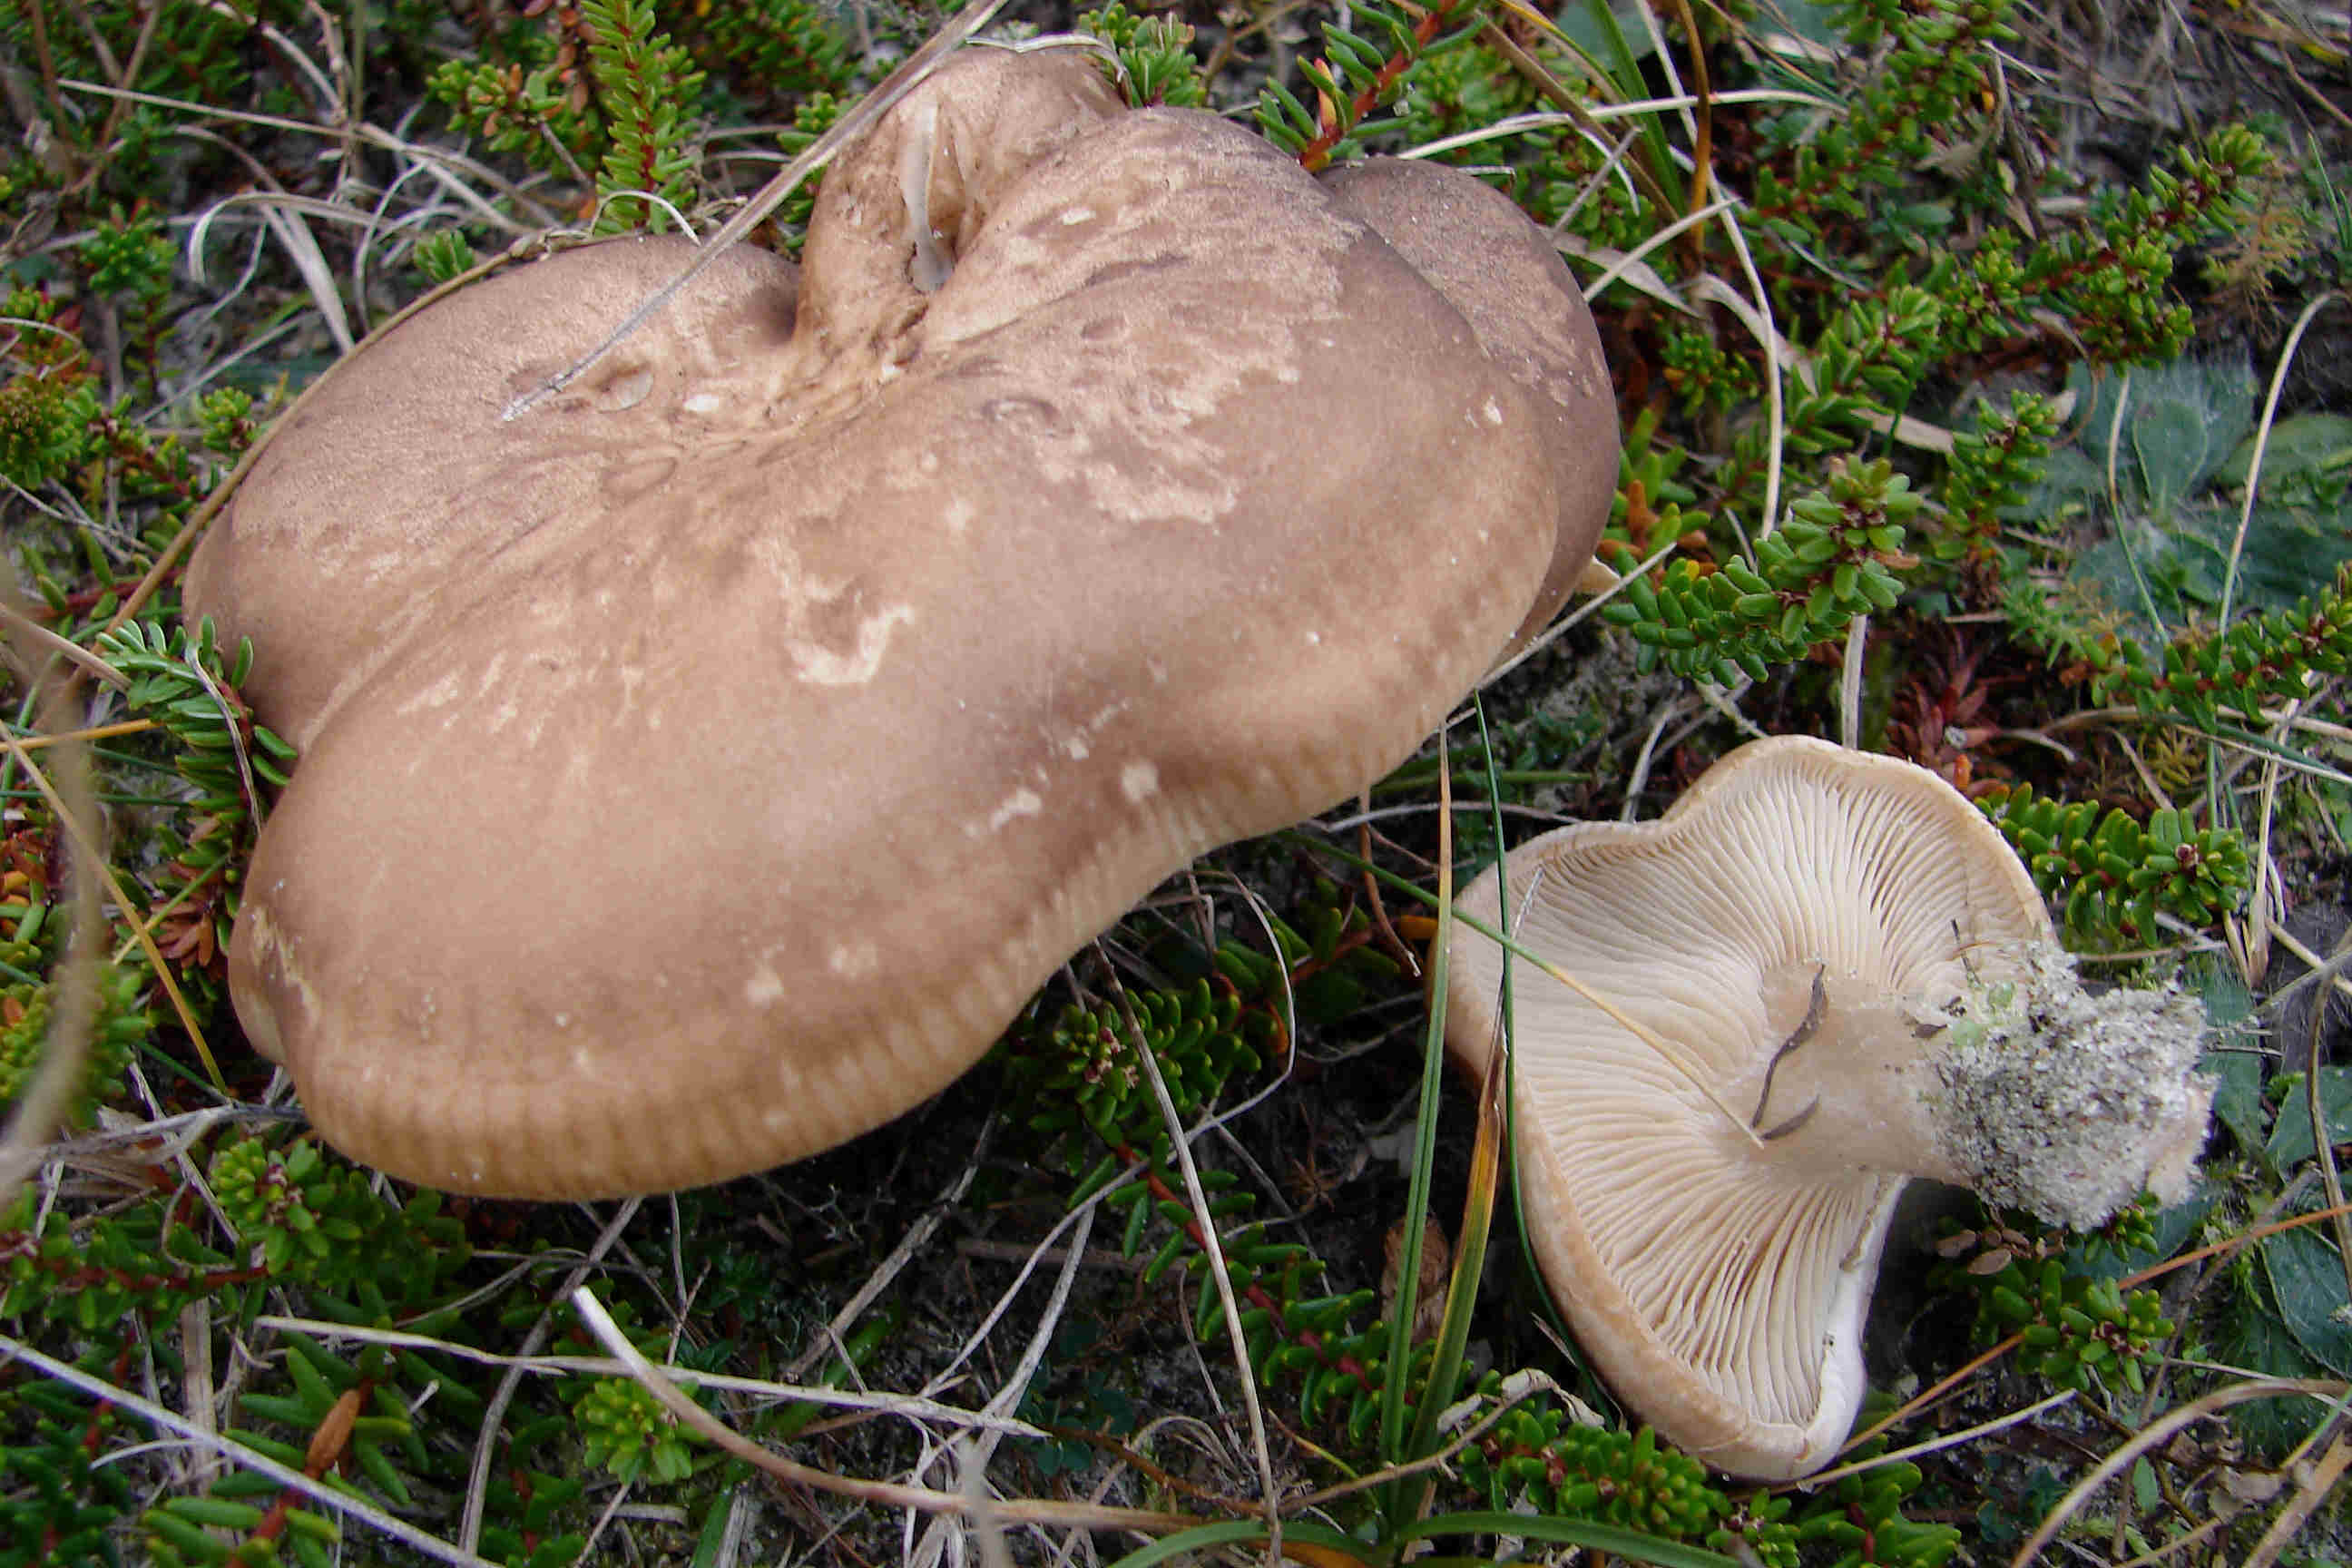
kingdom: Fungi
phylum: Basidiomycota
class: Agaricomycetes
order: Agaricales
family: Tricholomataceae
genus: Lepista
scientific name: Lepista panaeolus
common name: marmoreret hekseringshat
